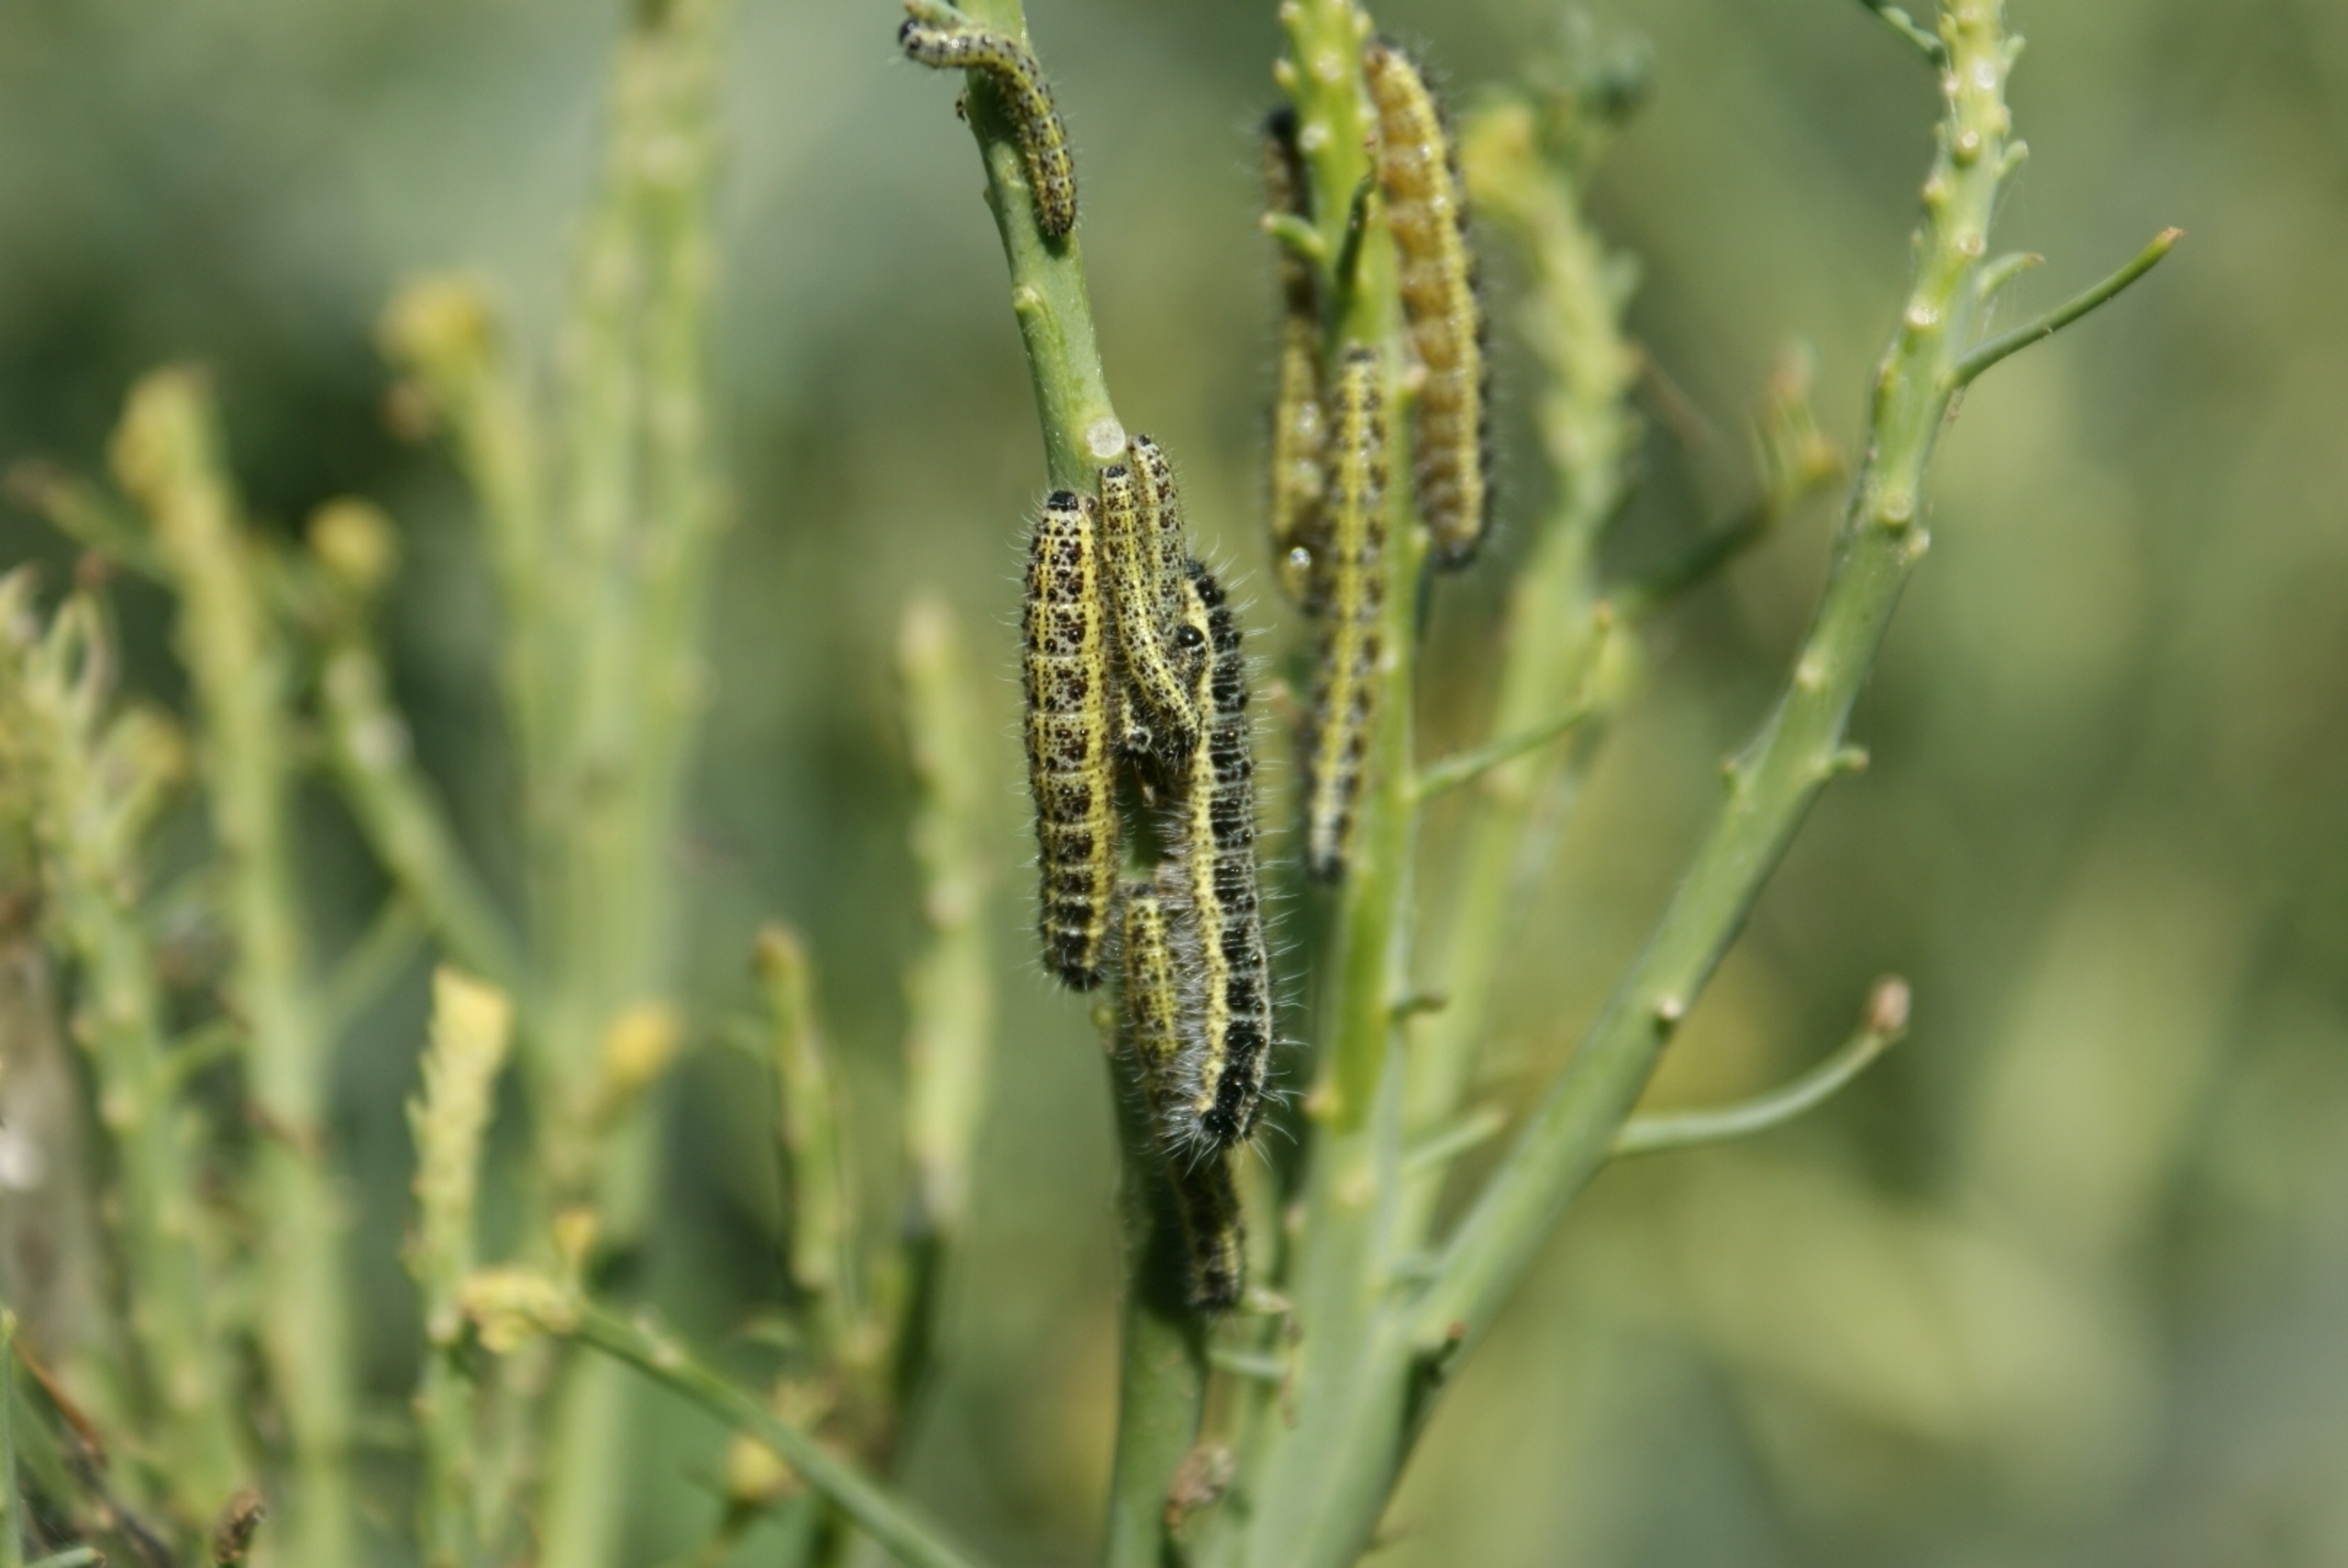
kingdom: Animalia
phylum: Arthropoda
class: Insecta
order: Lepidoptera
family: Pieridae
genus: Pieris
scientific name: Pieris brassicae
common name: Stor kålsommerfugl
